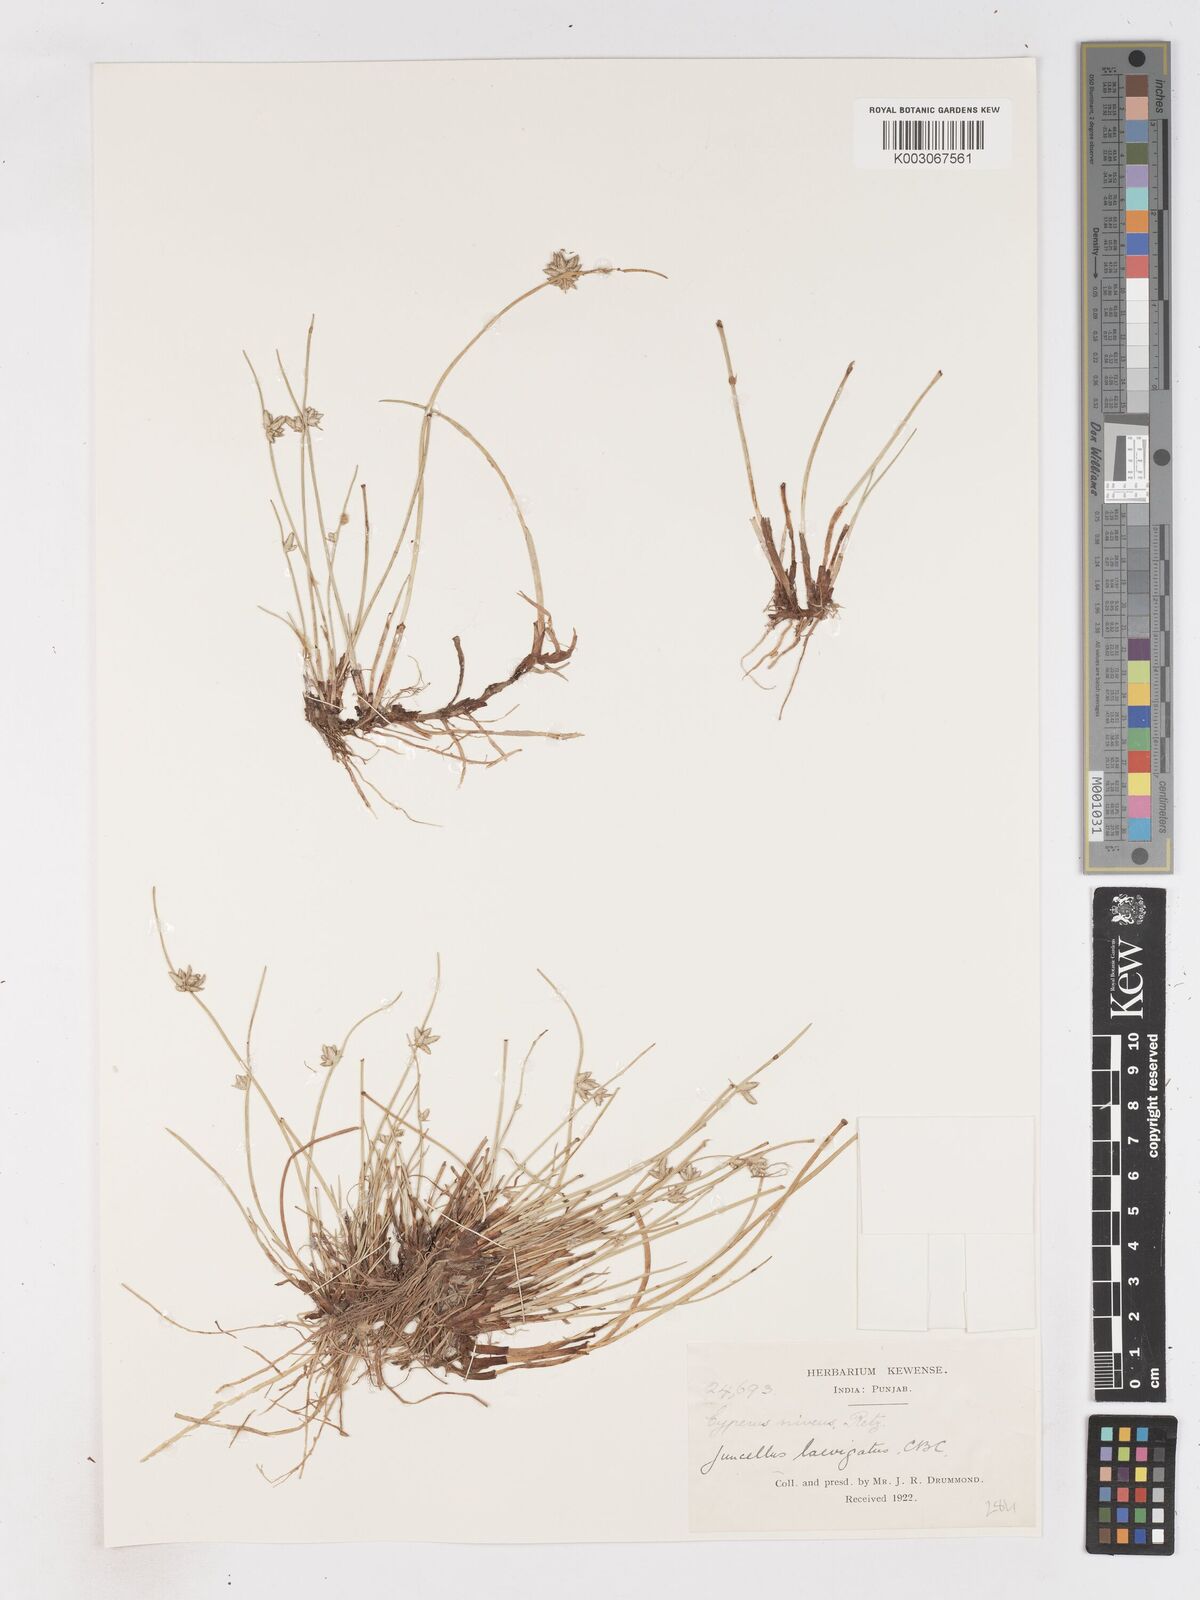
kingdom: Plantae
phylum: Tracheophyta
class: Liliopsida
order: Poales
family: Cyperaceae
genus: Cyperus
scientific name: Cyperus laevigatus
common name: Smooth flat sedge
